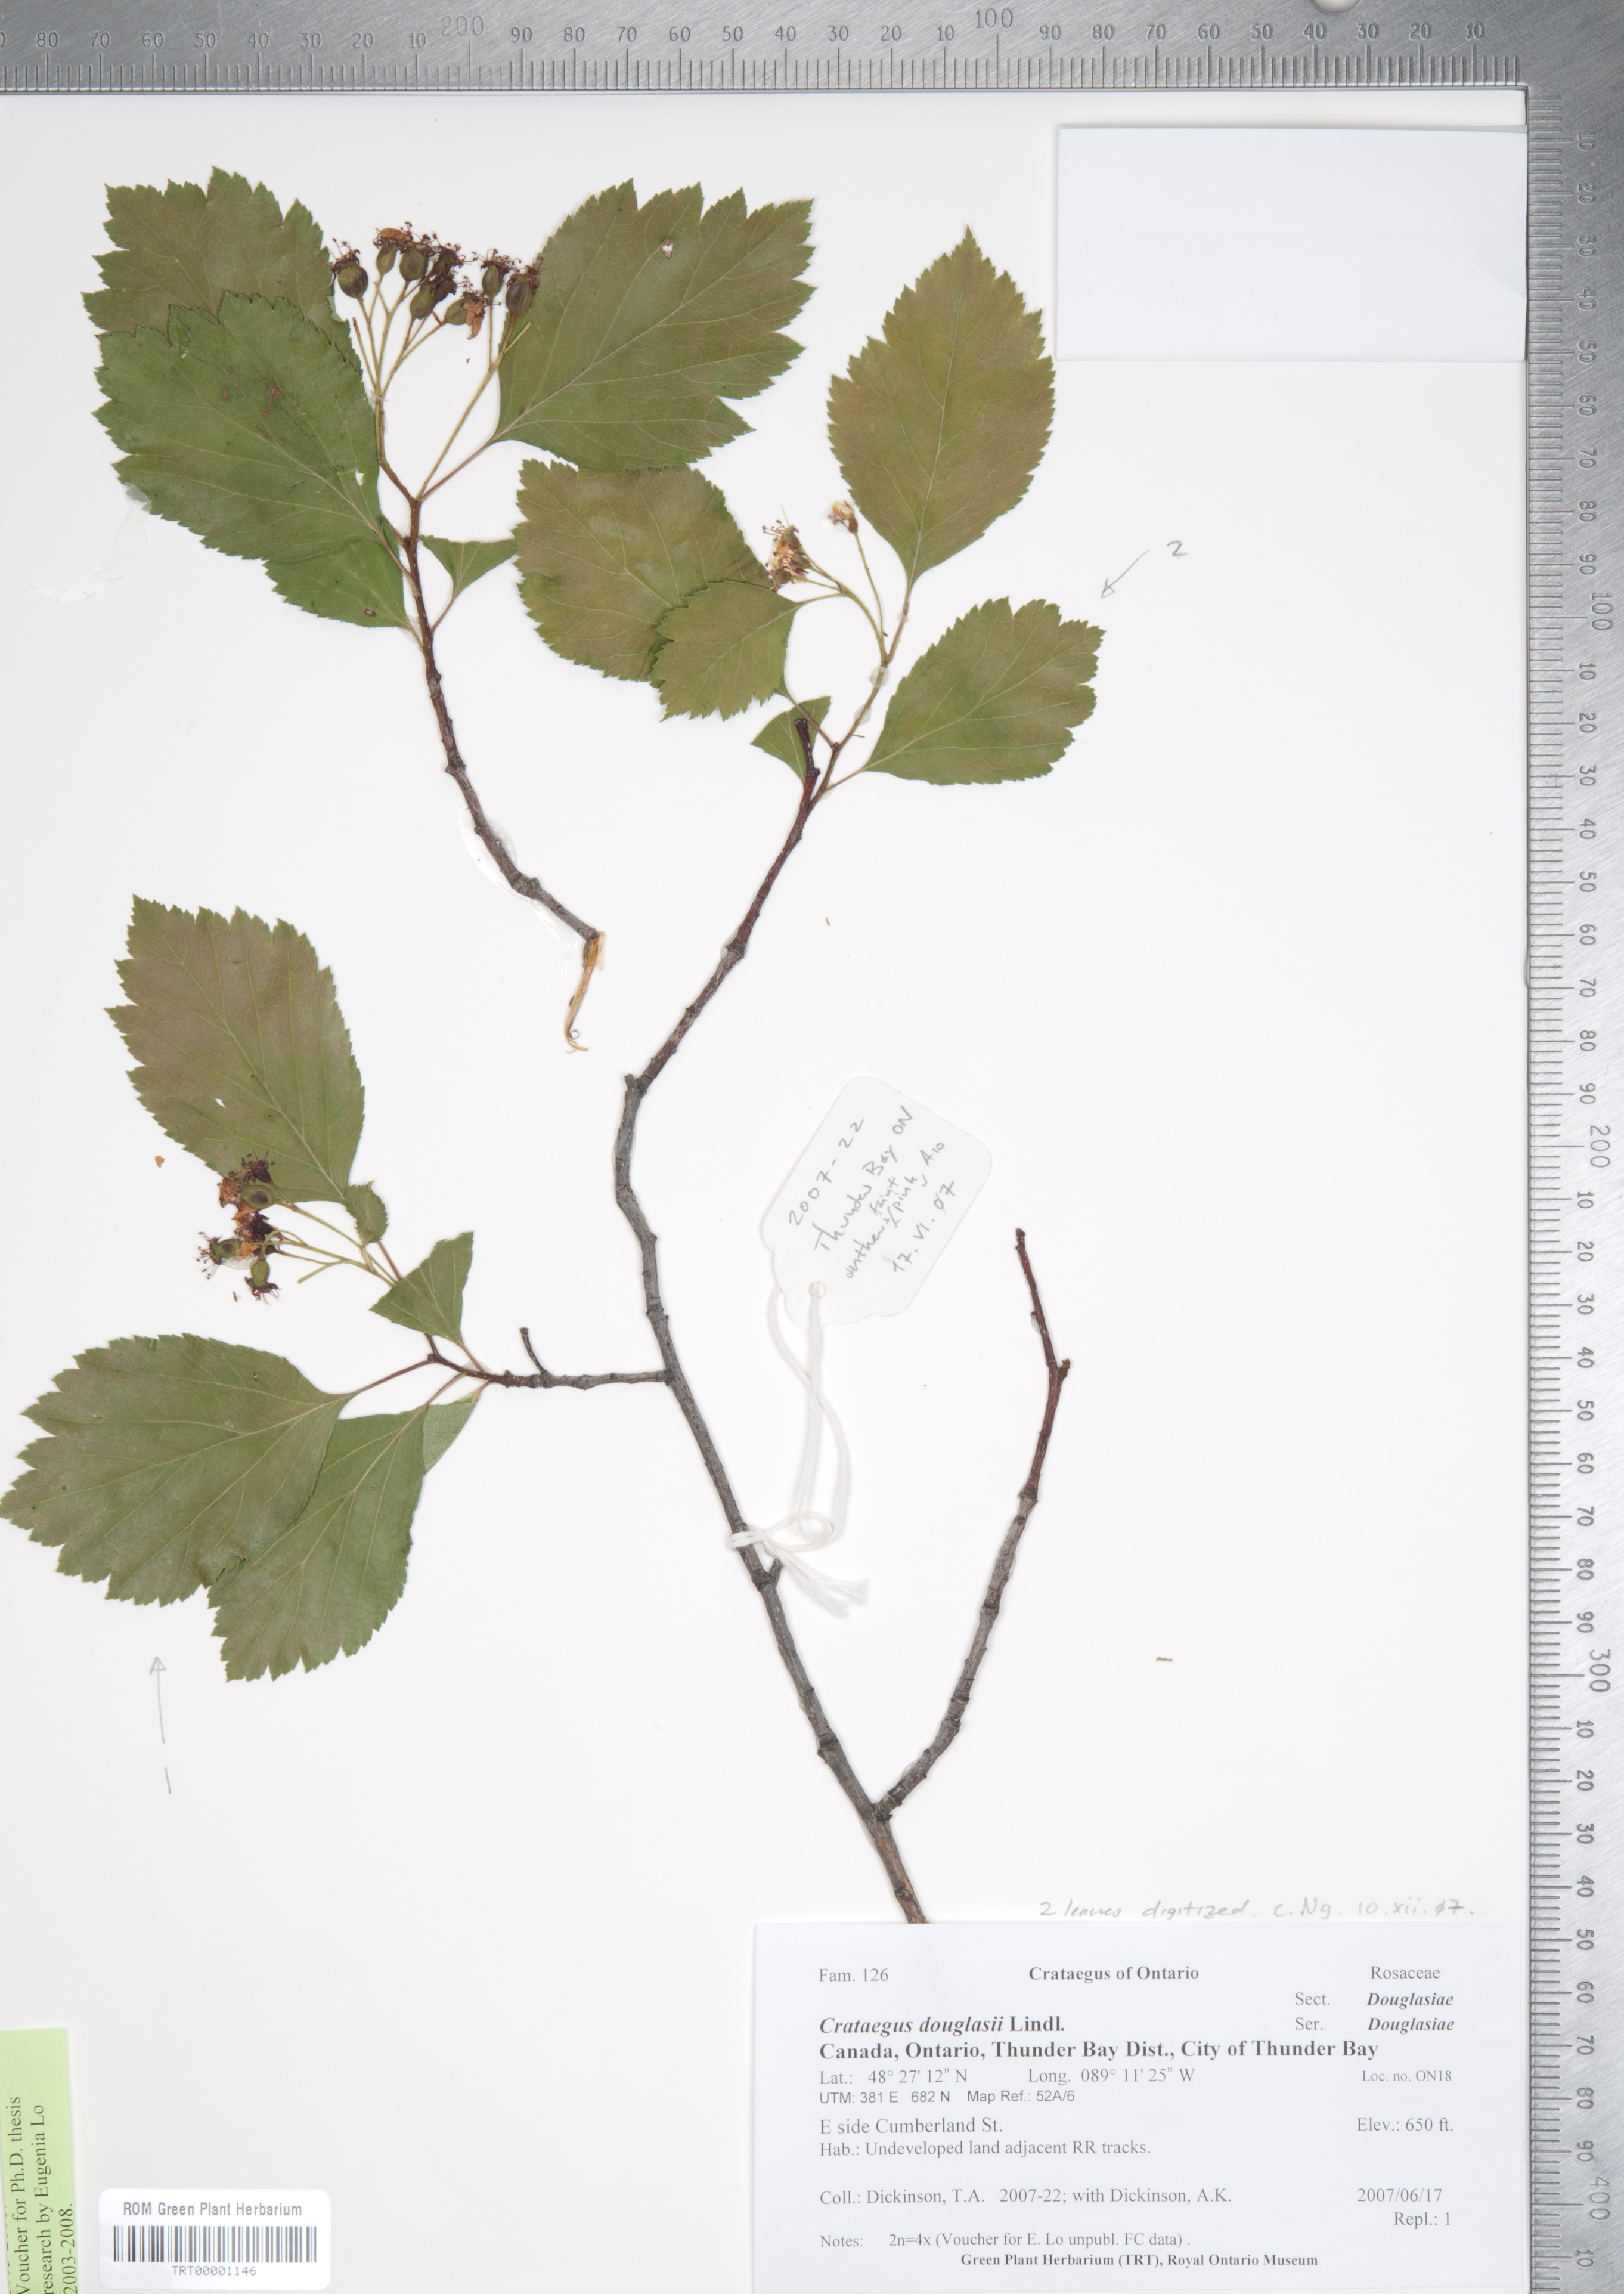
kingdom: Plantae
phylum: Tracheophyta
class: Magnoliopsida
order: Rosales
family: Rosaceae
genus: Crataegus
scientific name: Crataegus douglasii
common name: Black hawthorn
